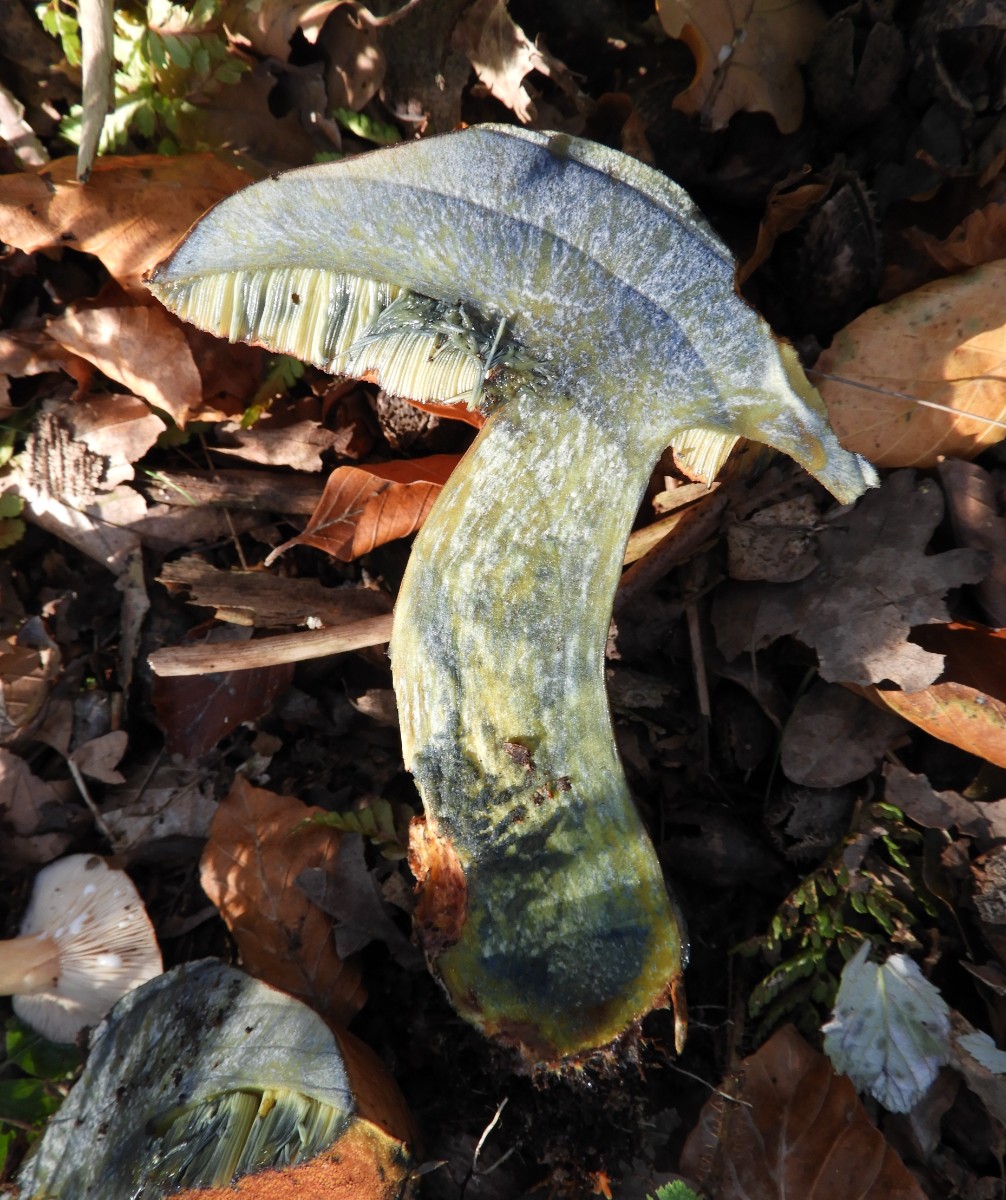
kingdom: Fungi
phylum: Basidiomycota
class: Agaricomycetes
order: Boletales
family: Boletaceae
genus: Suillellus
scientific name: Suillellus queletii
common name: glatstokket indigorørhat
